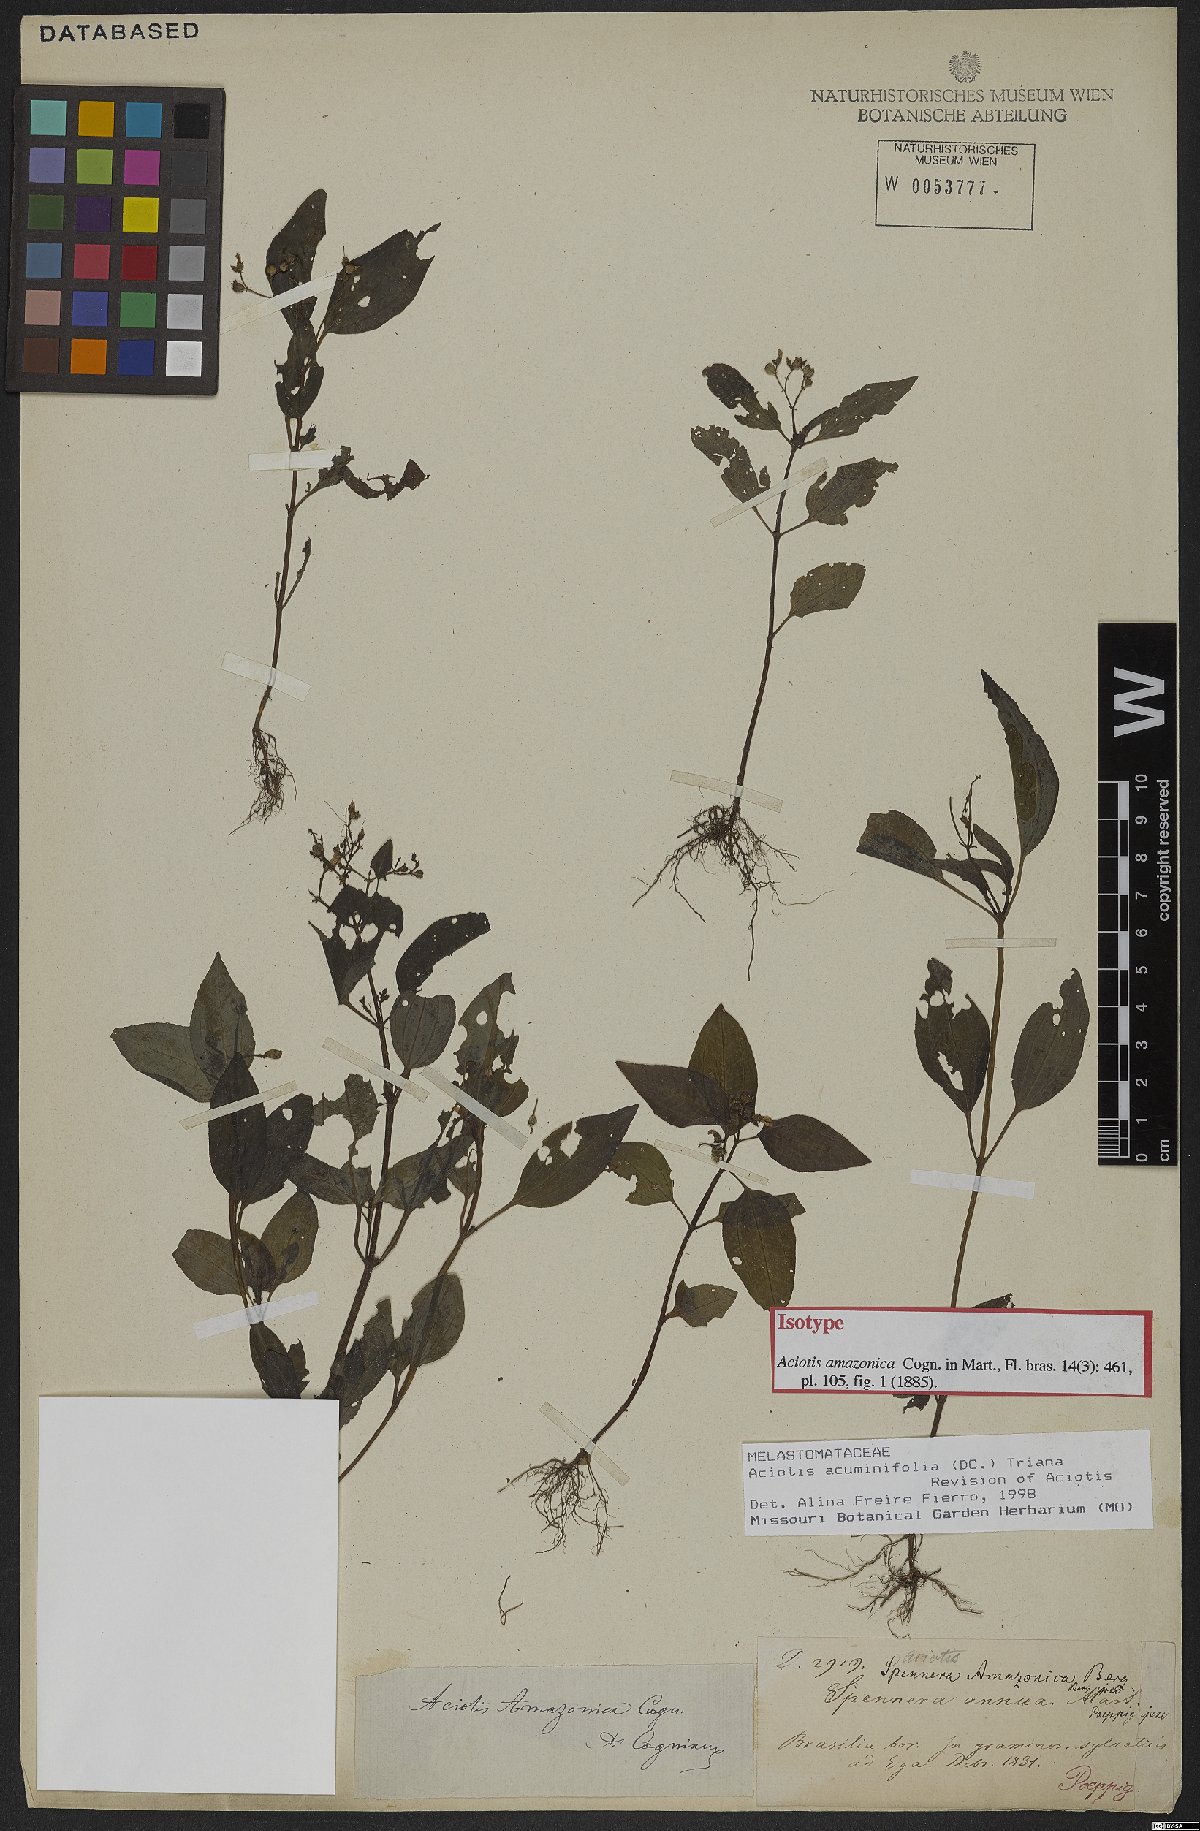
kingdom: Plantae
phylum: Tracheophyta
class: Magnoliopsida
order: Myrtales
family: Melastomataceae
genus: Aciotis
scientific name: Aciotis acuminifolia
